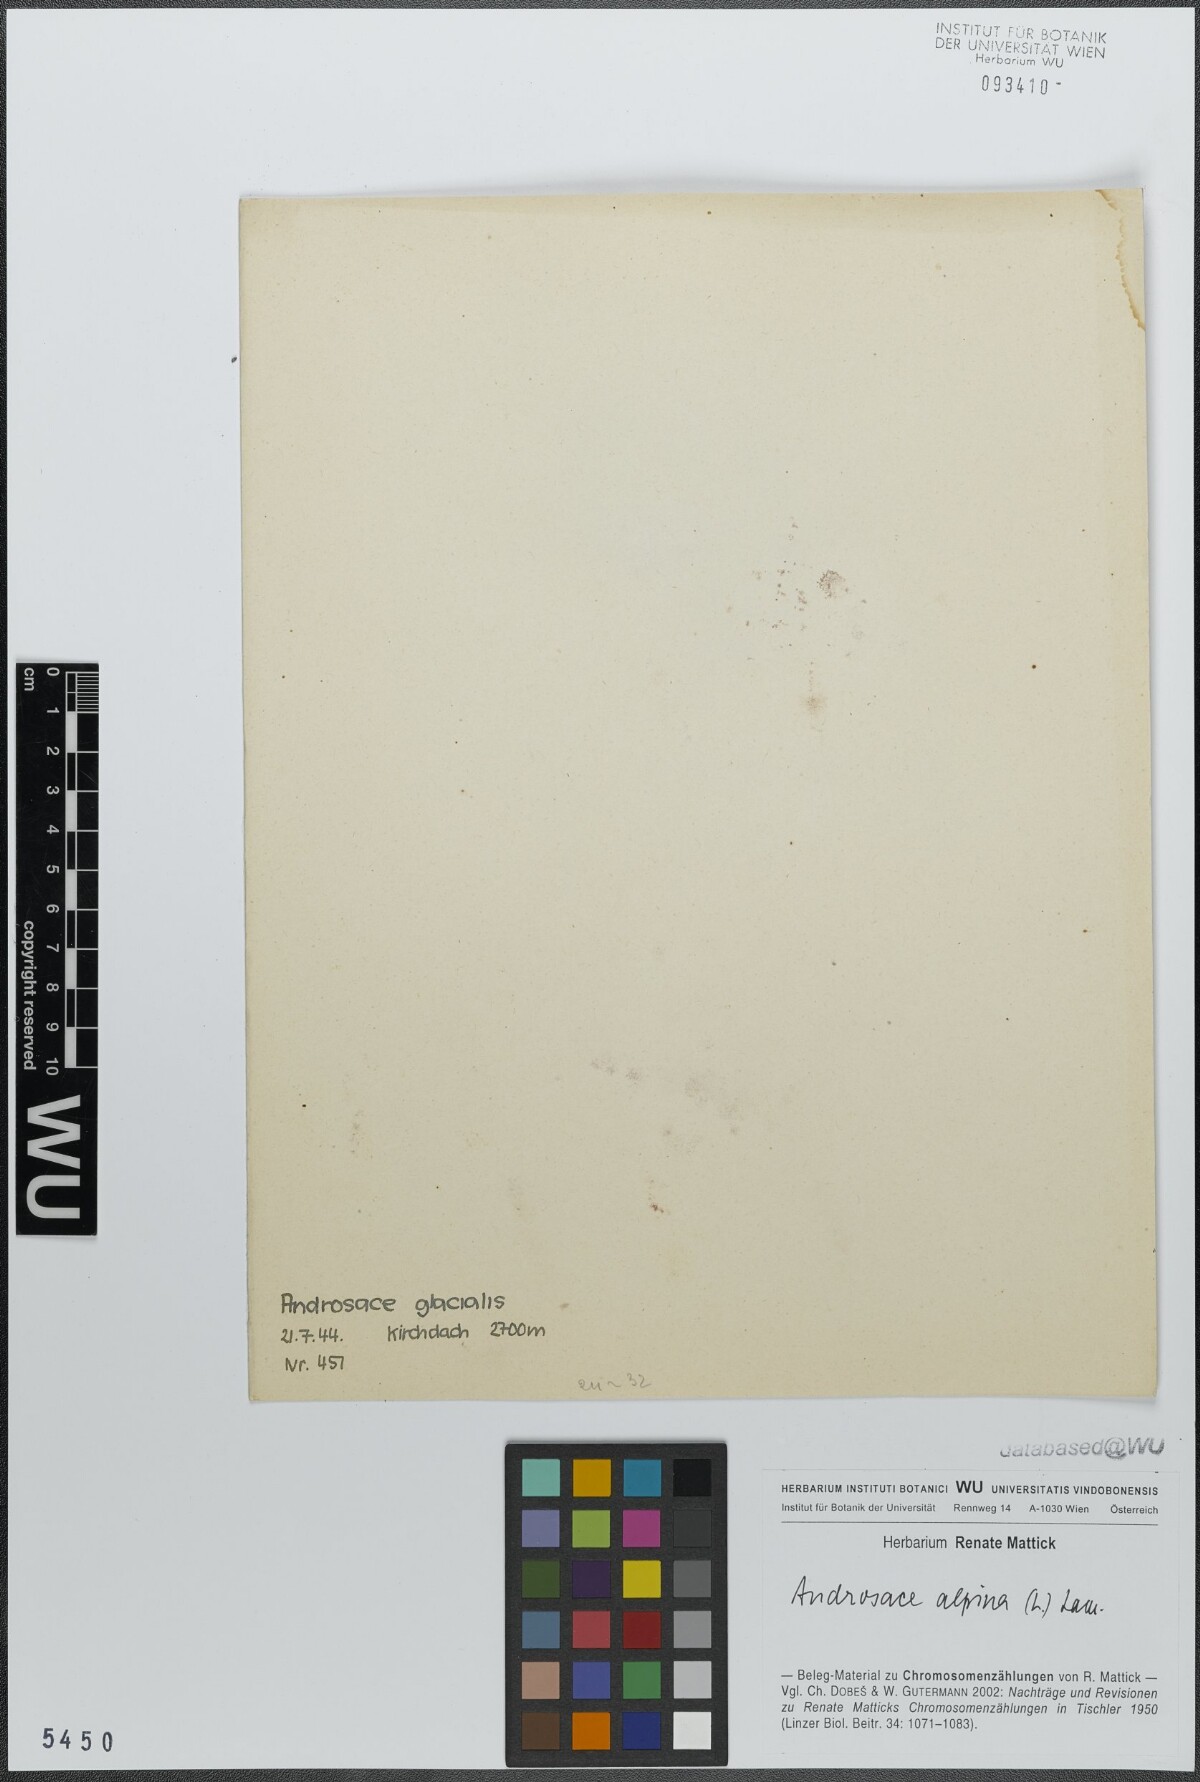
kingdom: Plantae
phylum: Tracheophyta
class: Magnoliopsida
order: Ericales
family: Primulaceae
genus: Androsace
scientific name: Androsace alpina
